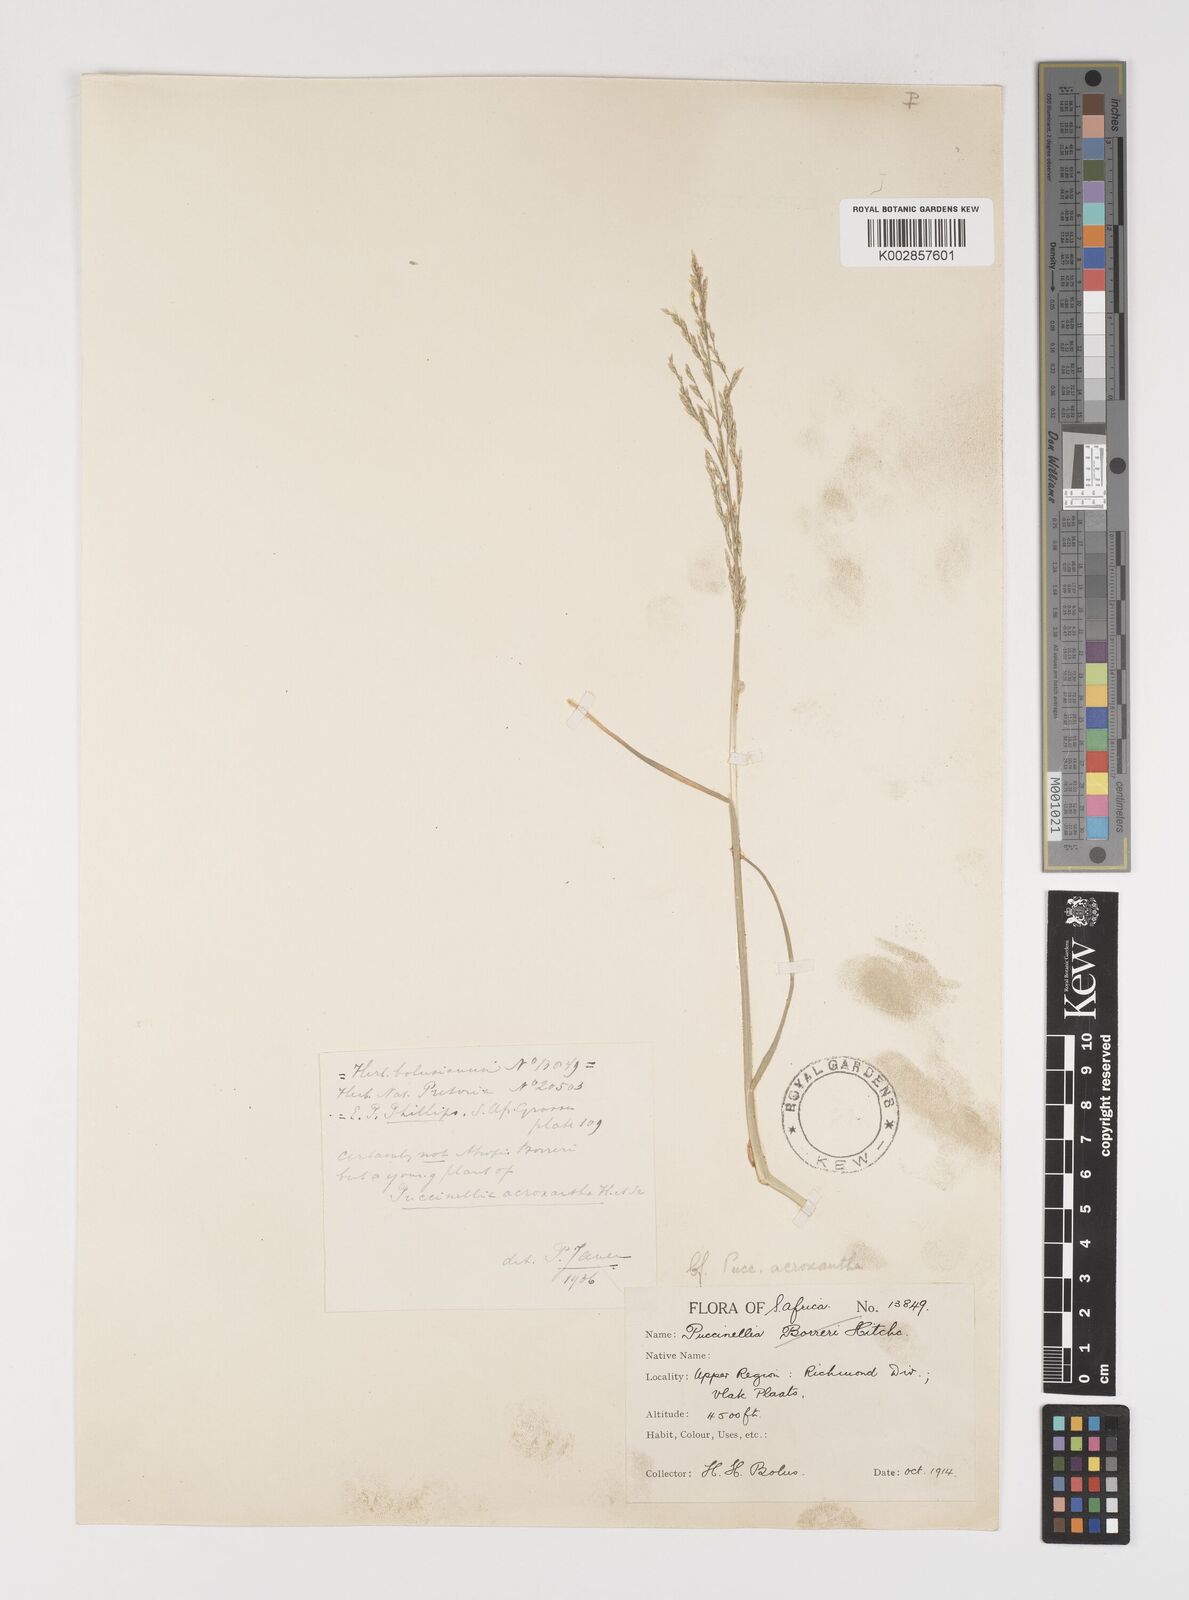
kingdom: Plantae
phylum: Tracheophyta
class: Liliopsida
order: Poales
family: Poaceae
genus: Puccinellia
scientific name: Puccinellia acroxantha
